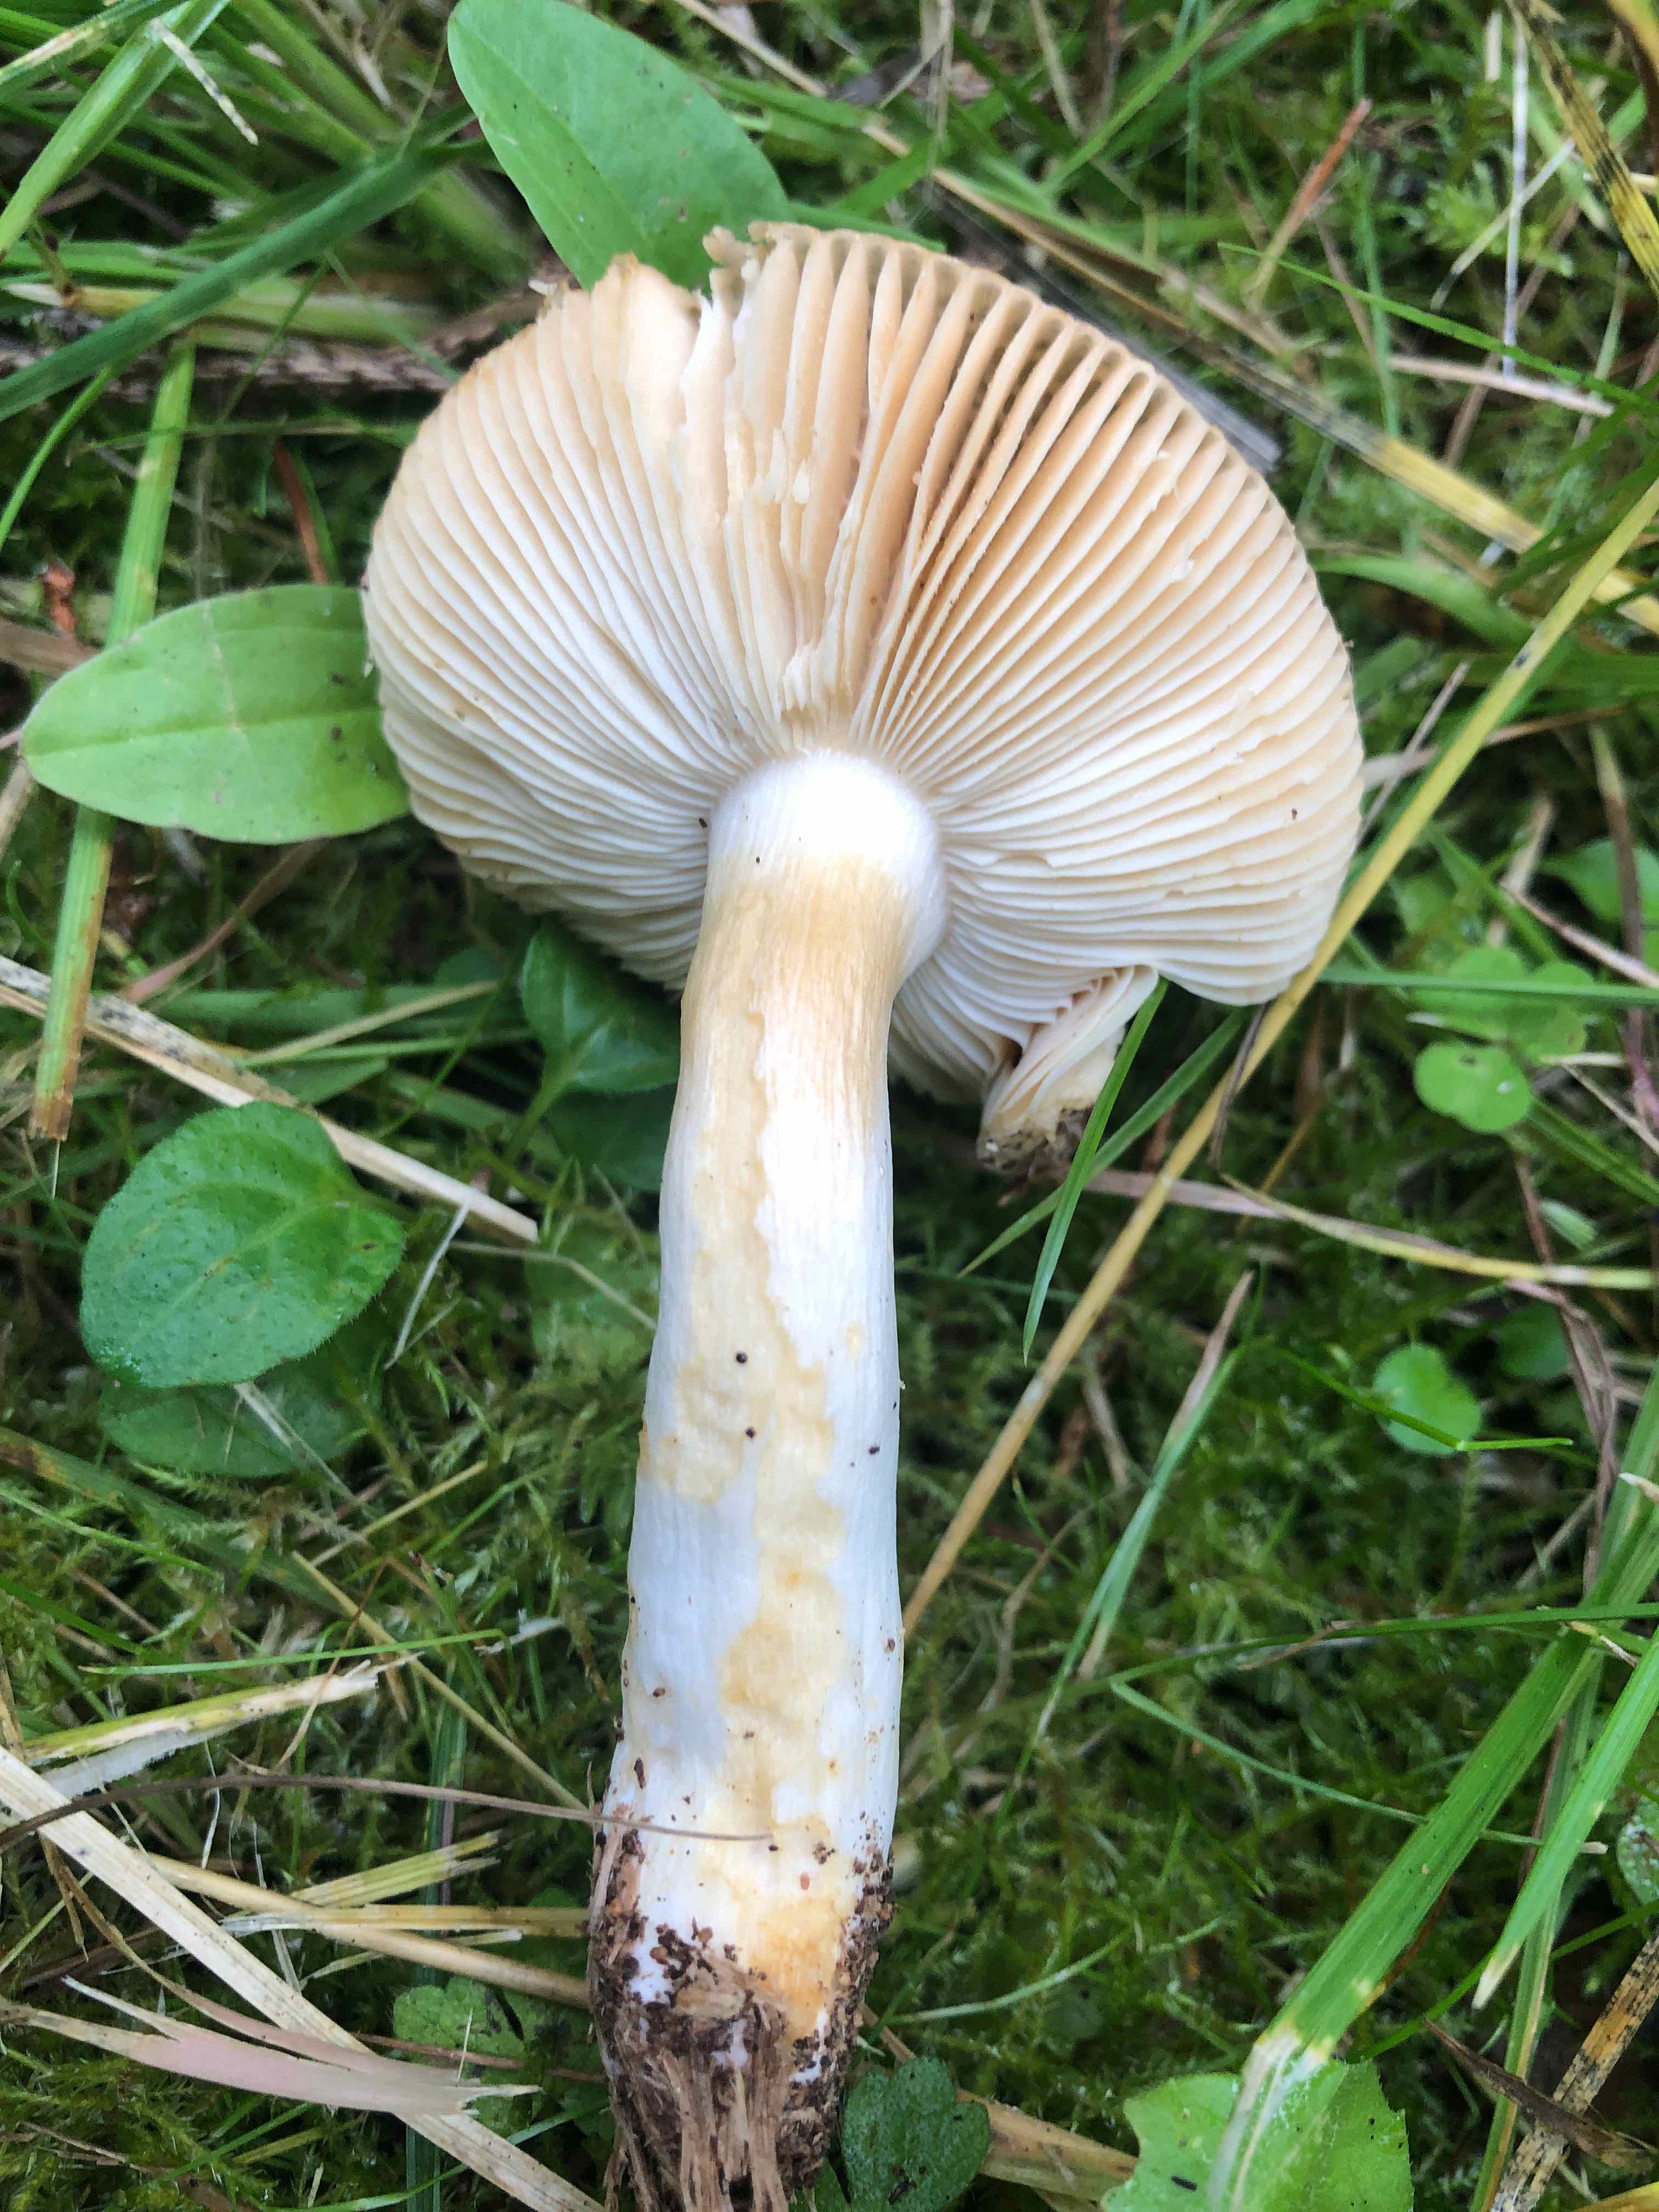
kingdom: Fungi
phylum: Basidiomycota
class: Agaricomycetes
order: Russulales
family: Russulaceae
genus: Russula
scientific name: Russula puellaris
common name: gulstokket skørhat
